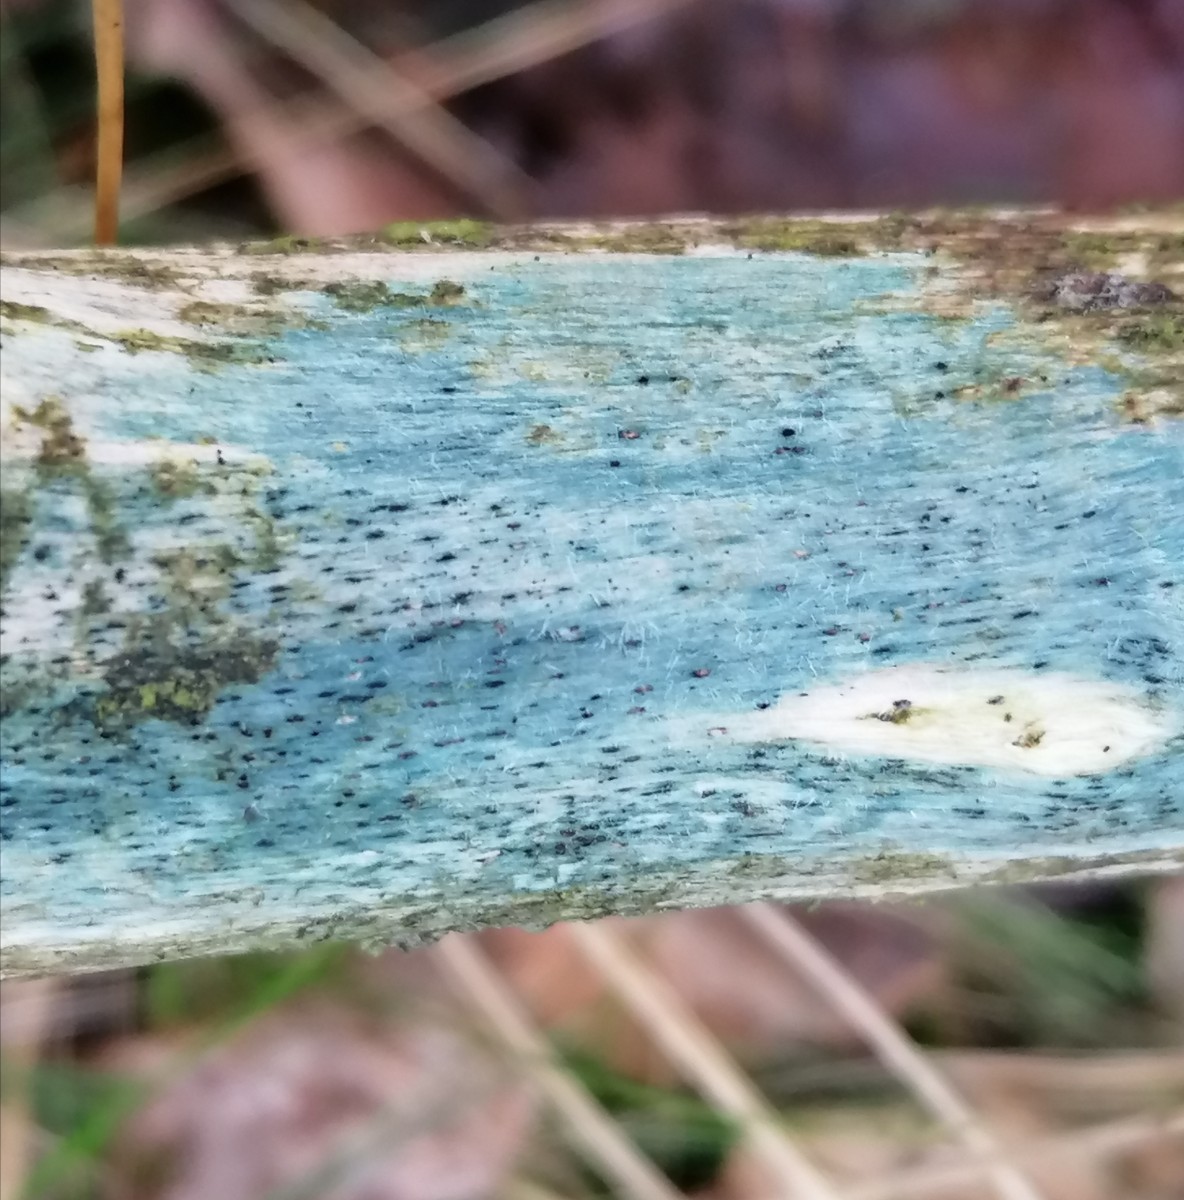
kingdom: Fungi
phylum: Ascomycota
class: Leotiomycetes
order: Helotiales
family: Helotiaceae
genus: Durella
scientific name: Durella atrocyanea
